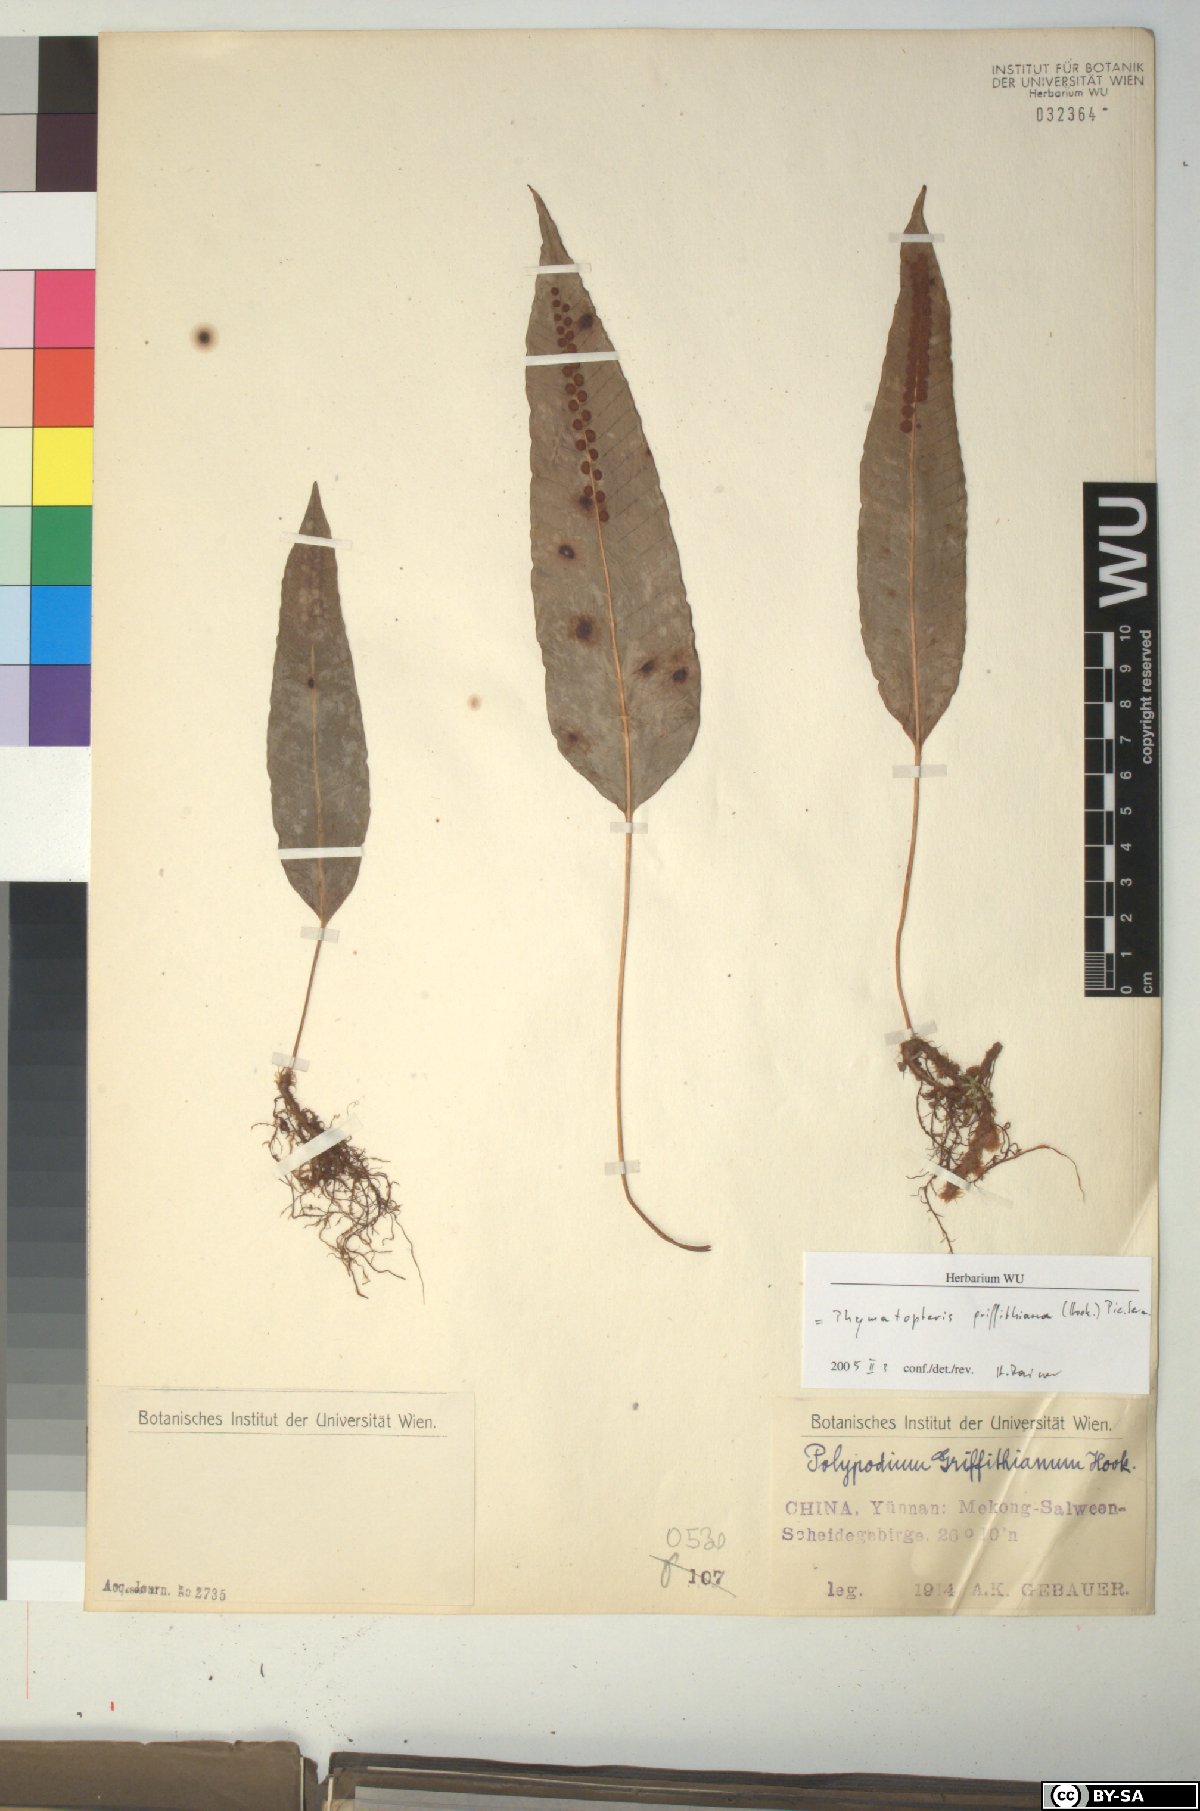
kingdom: Plantae
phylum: Tracheophyta
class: Polypodiopsida
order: Polypodiales
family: Polypodiaceae
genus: Selliguea
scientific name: Selliguea griffithiana
